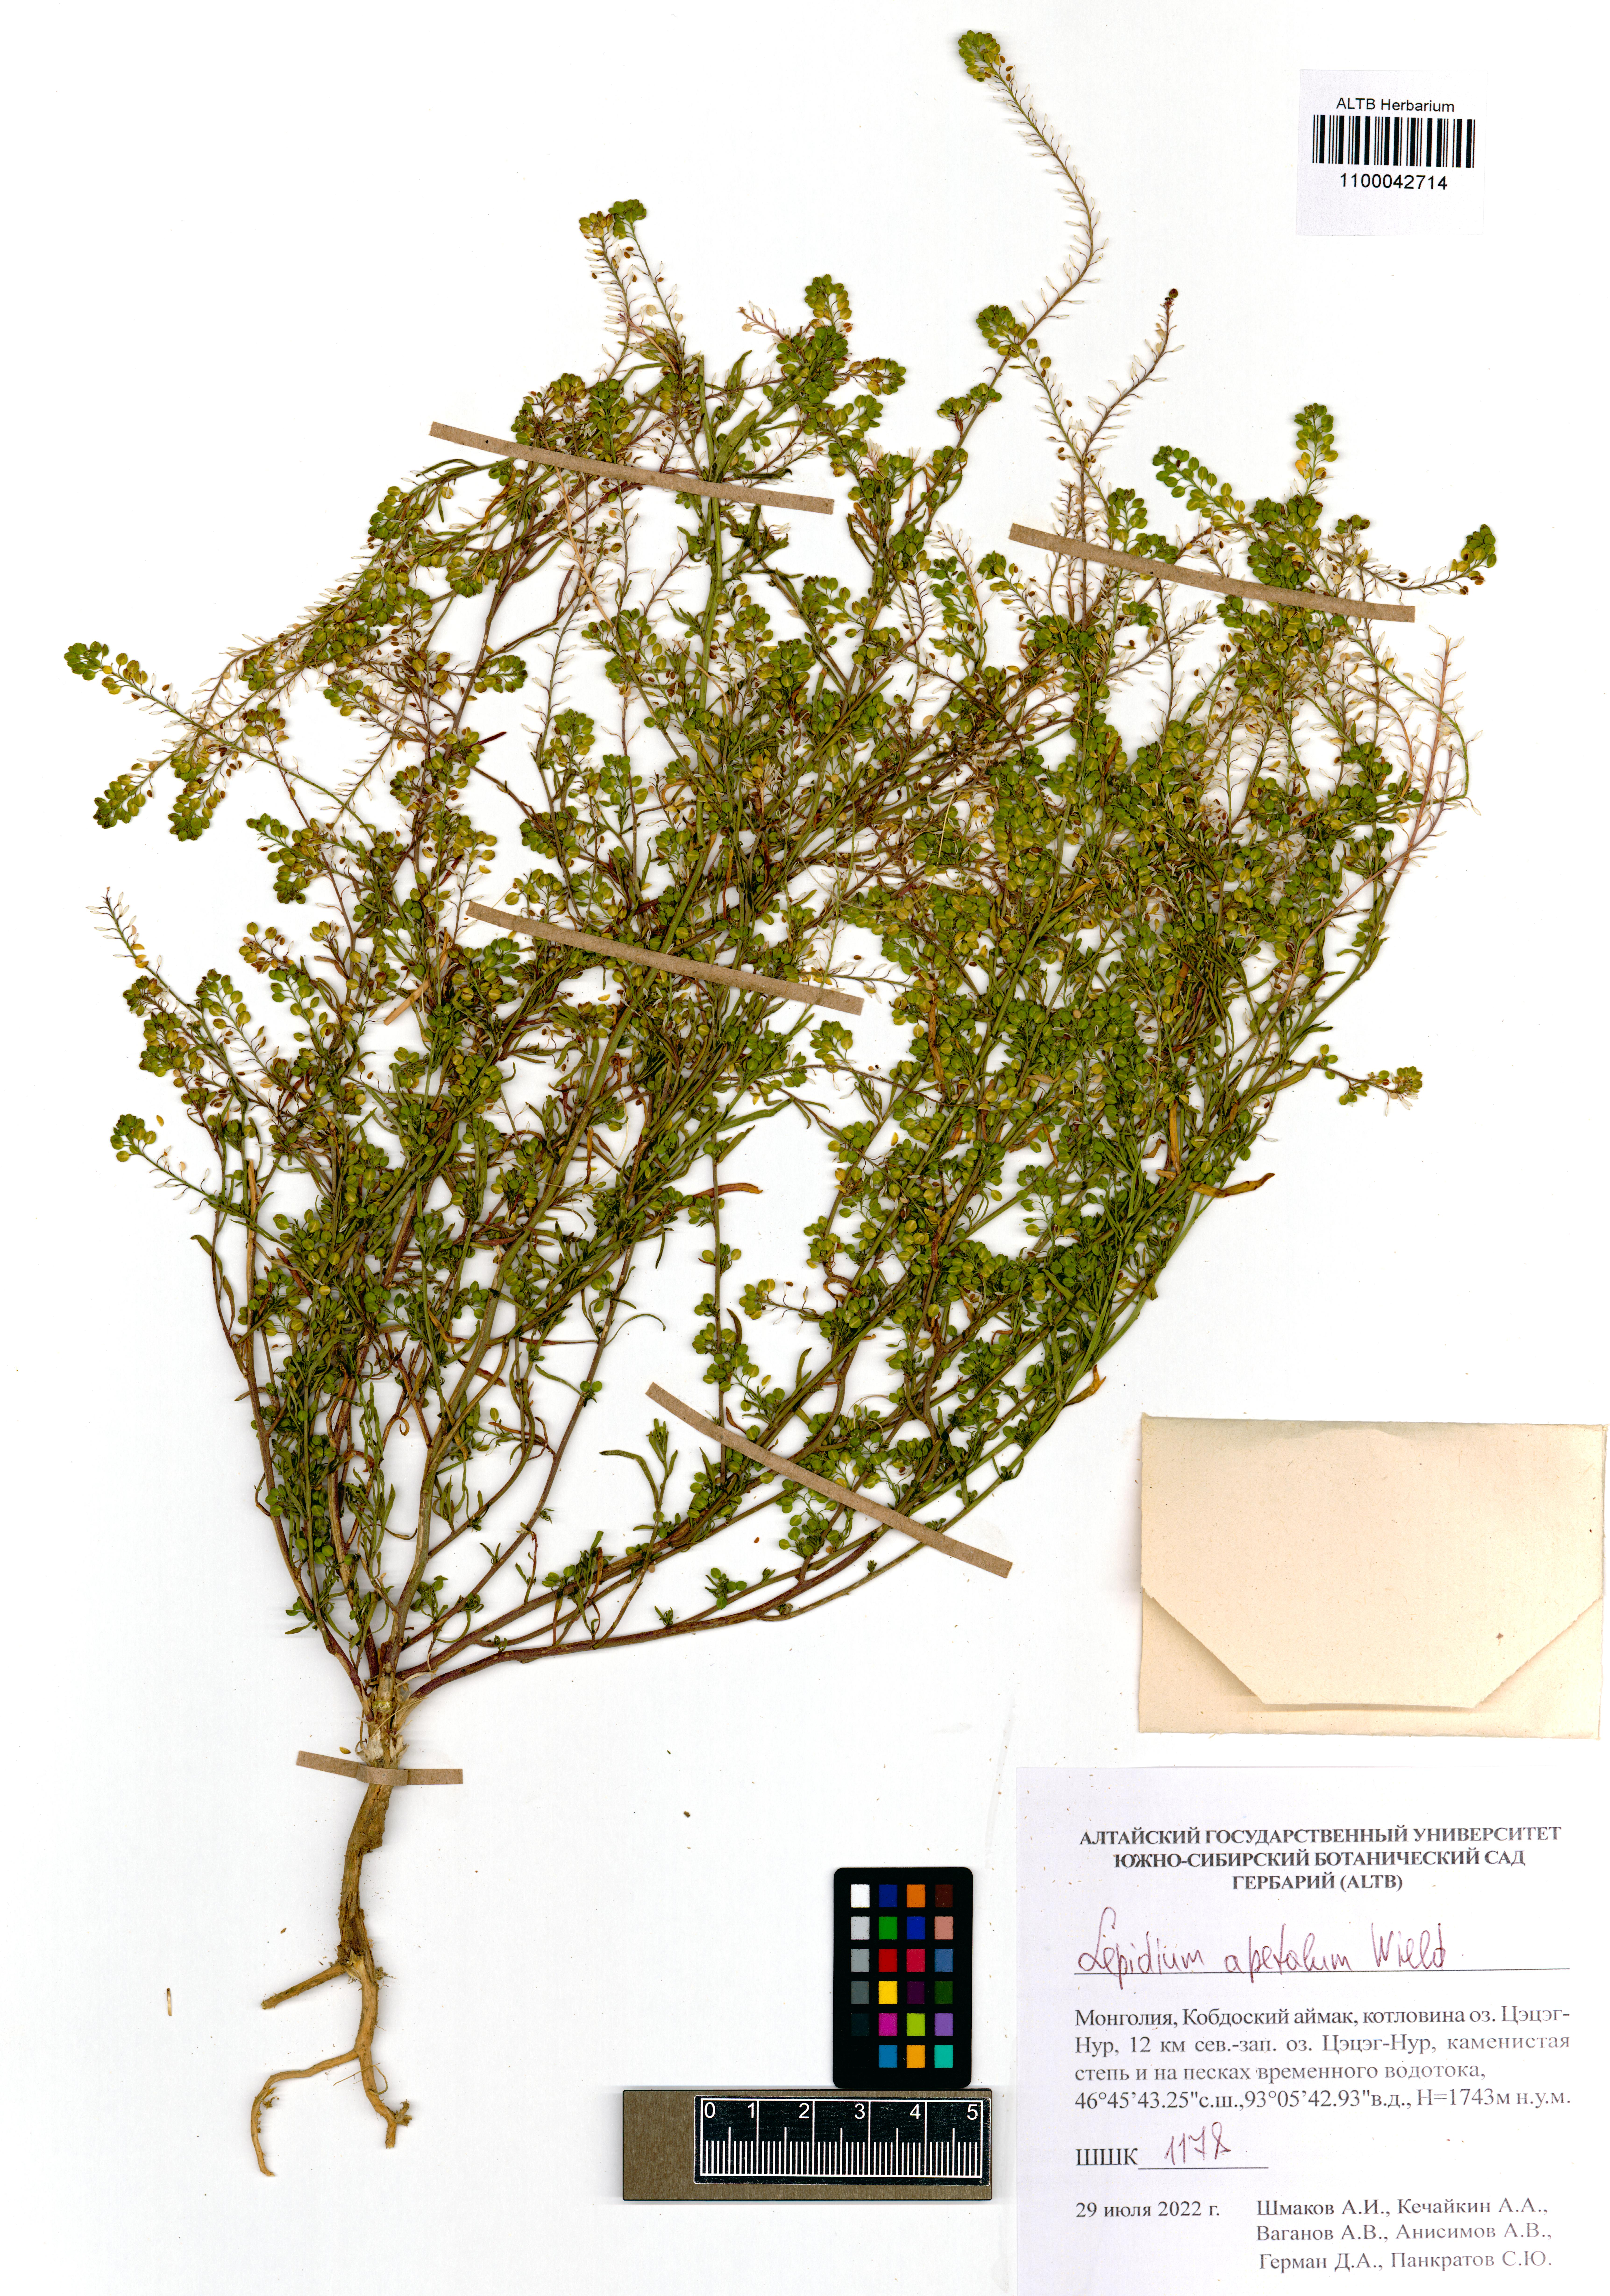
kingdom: Plantae
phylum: Tracheophyta
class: Magnoliopsida
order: Brassicales
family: Brassicaceae
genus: Lepidium
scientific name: Lepidium apetalum
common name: Pepperweed
